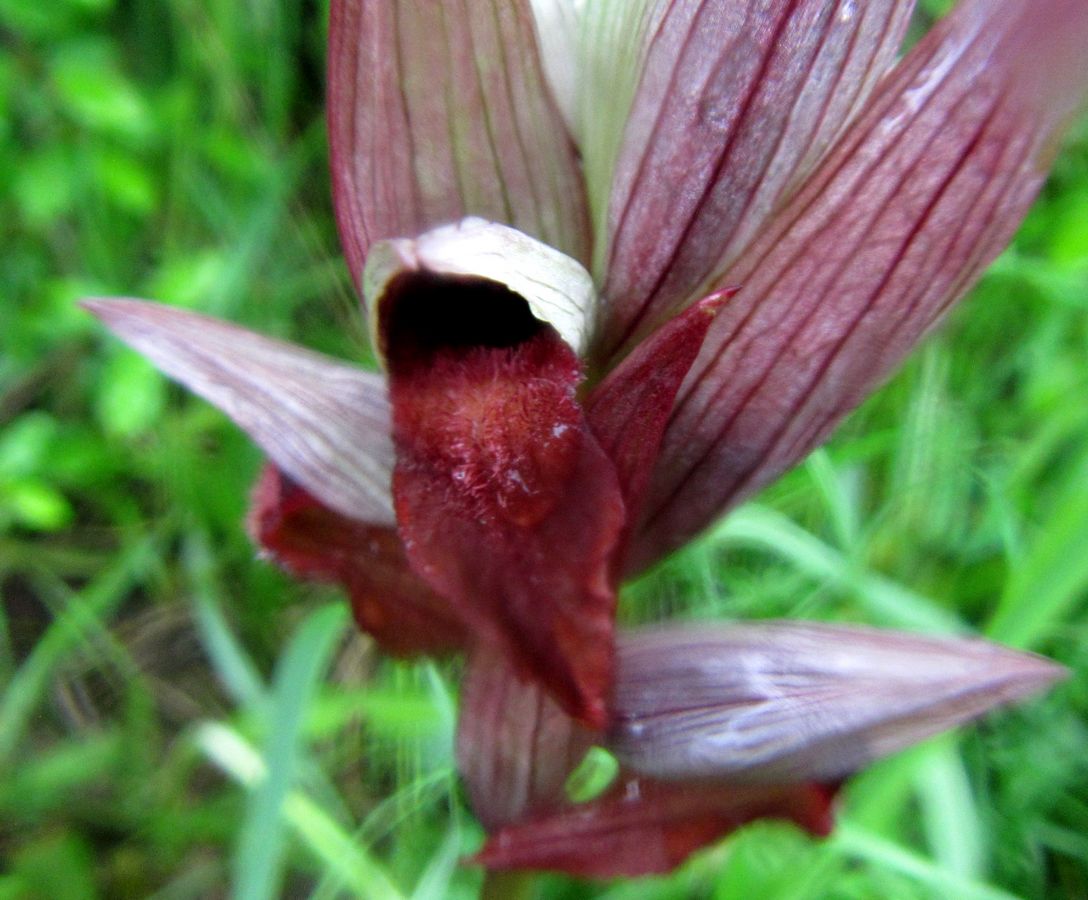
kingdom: Plantae
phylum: Tracheophyta
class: Liliopsida
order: Asparagales
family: Orchidaceae
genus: Serapias
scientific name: Serapias vomeracea
